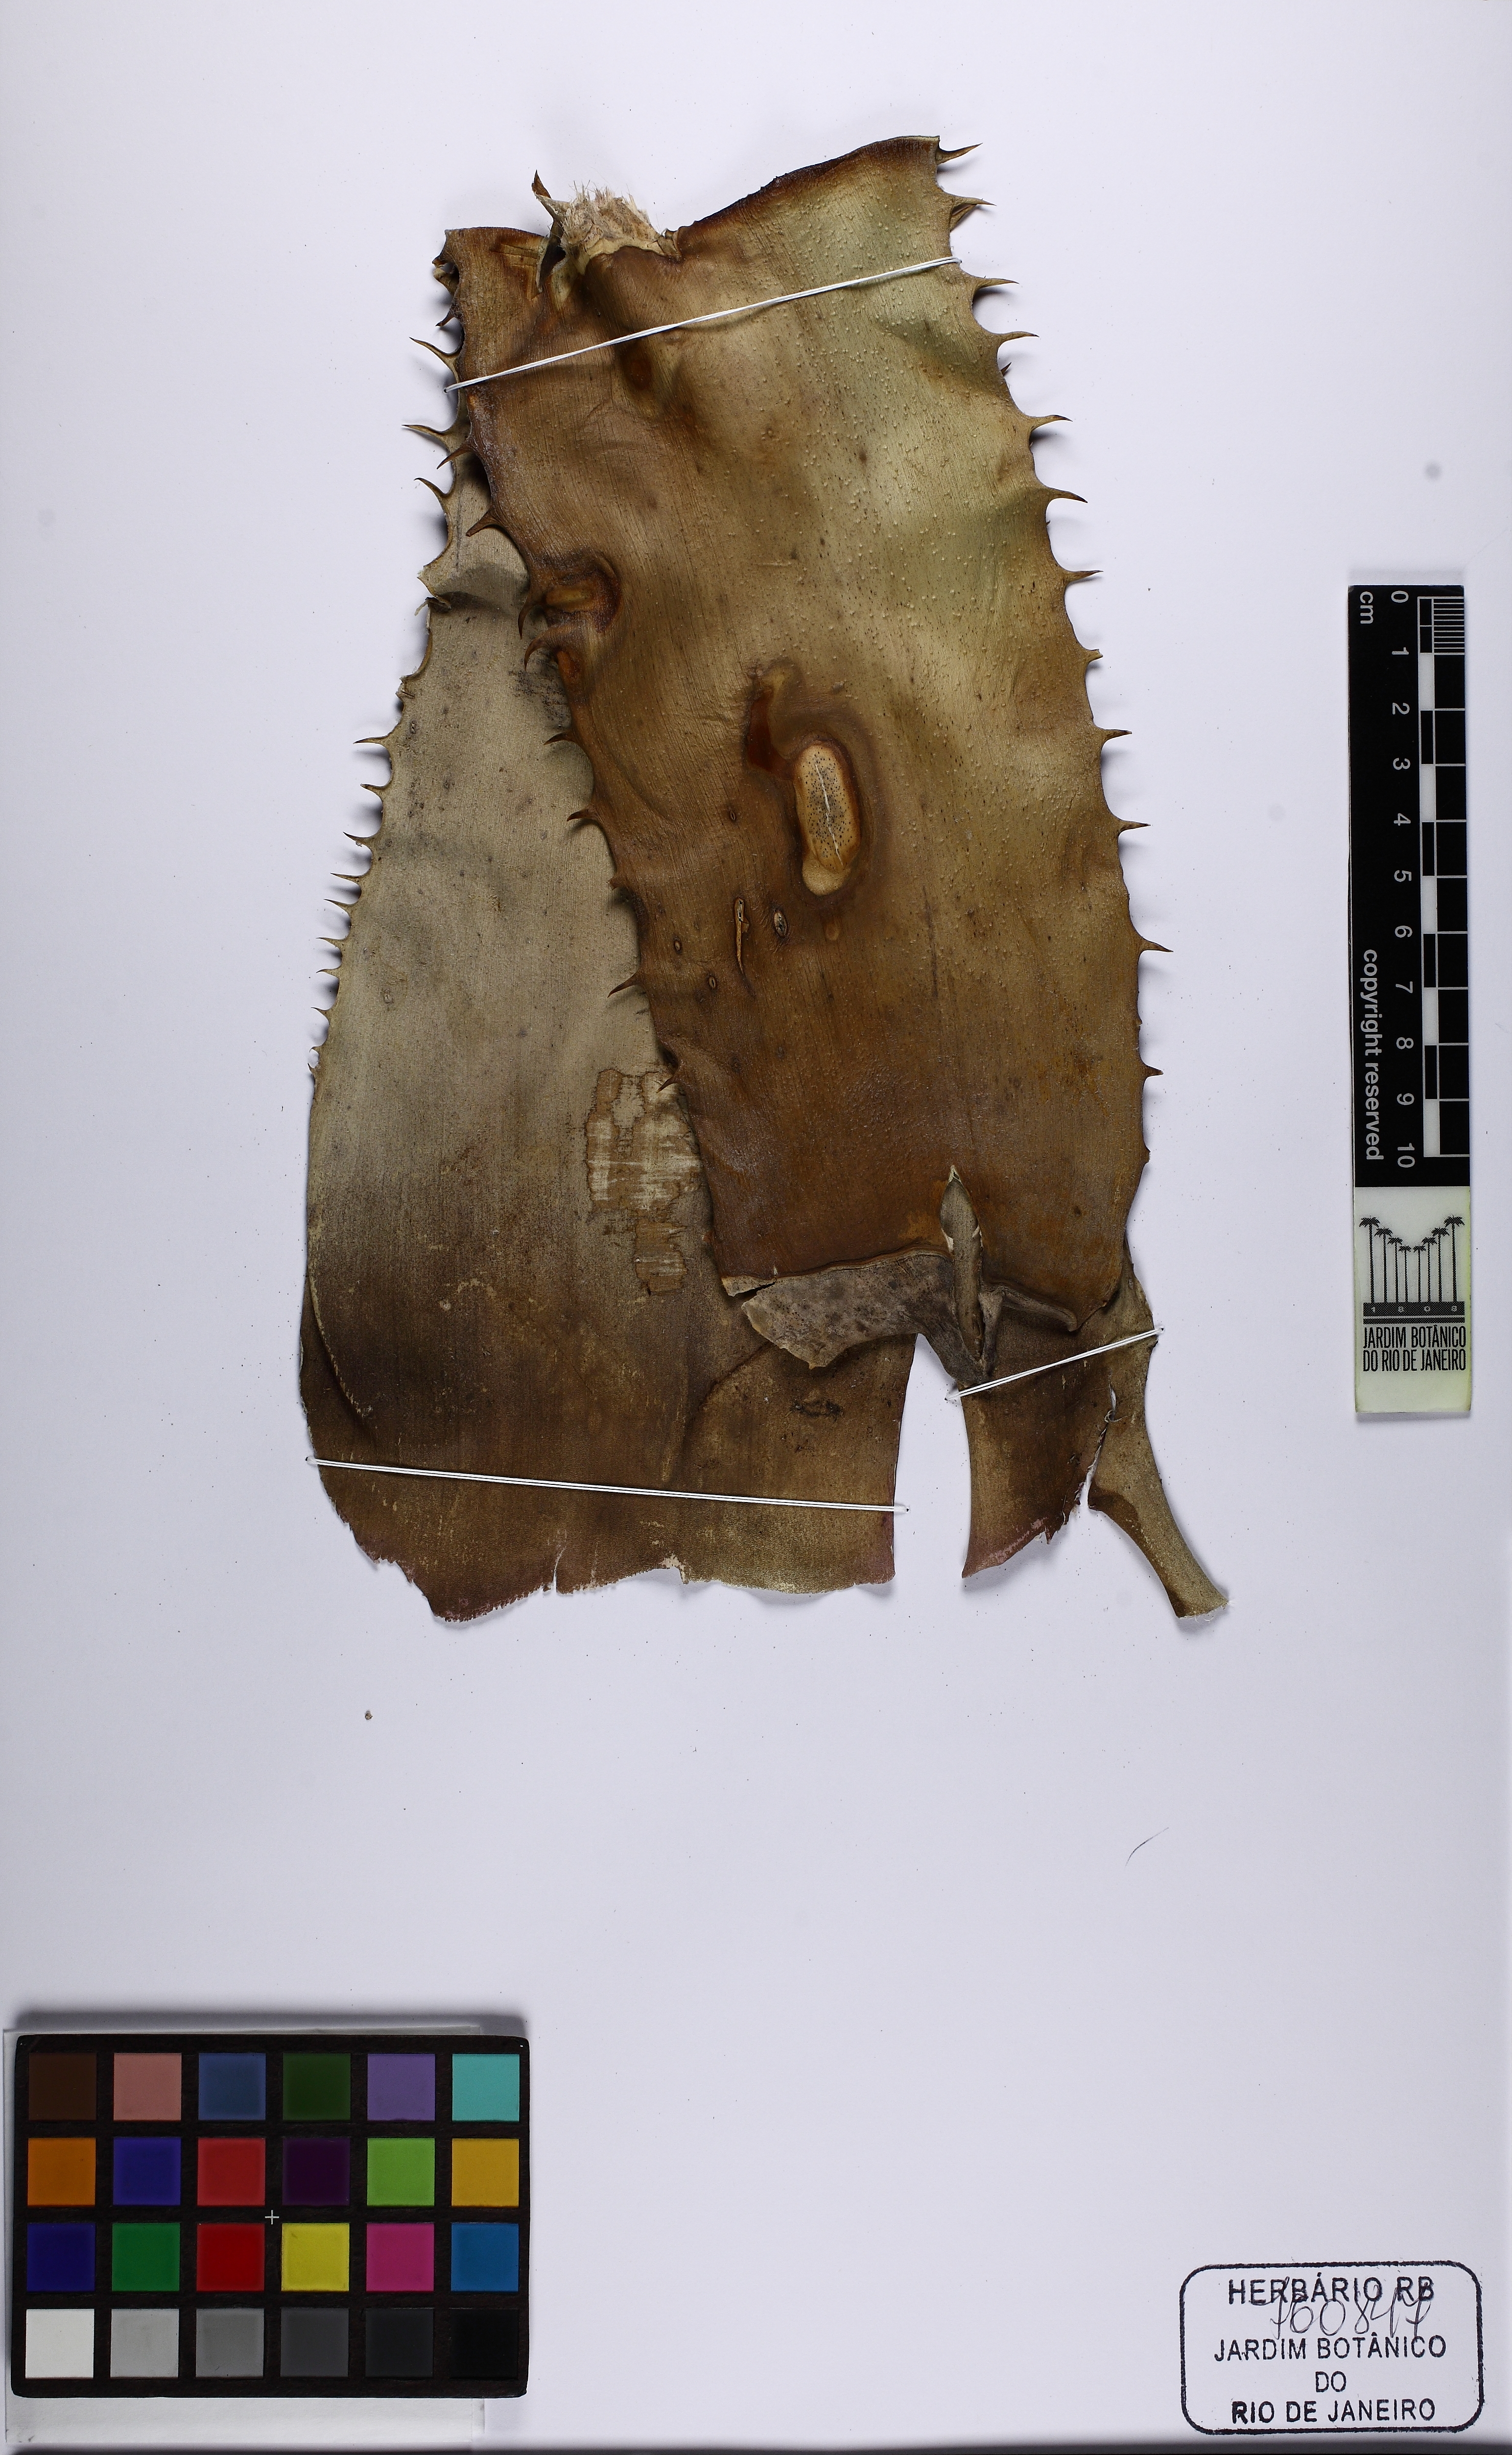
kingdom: Plantae
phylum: Tracheophyta
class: Liliopsida
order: Poales
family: Bromeliaceae
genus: Aechmea
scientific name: Aechmea bracteata
